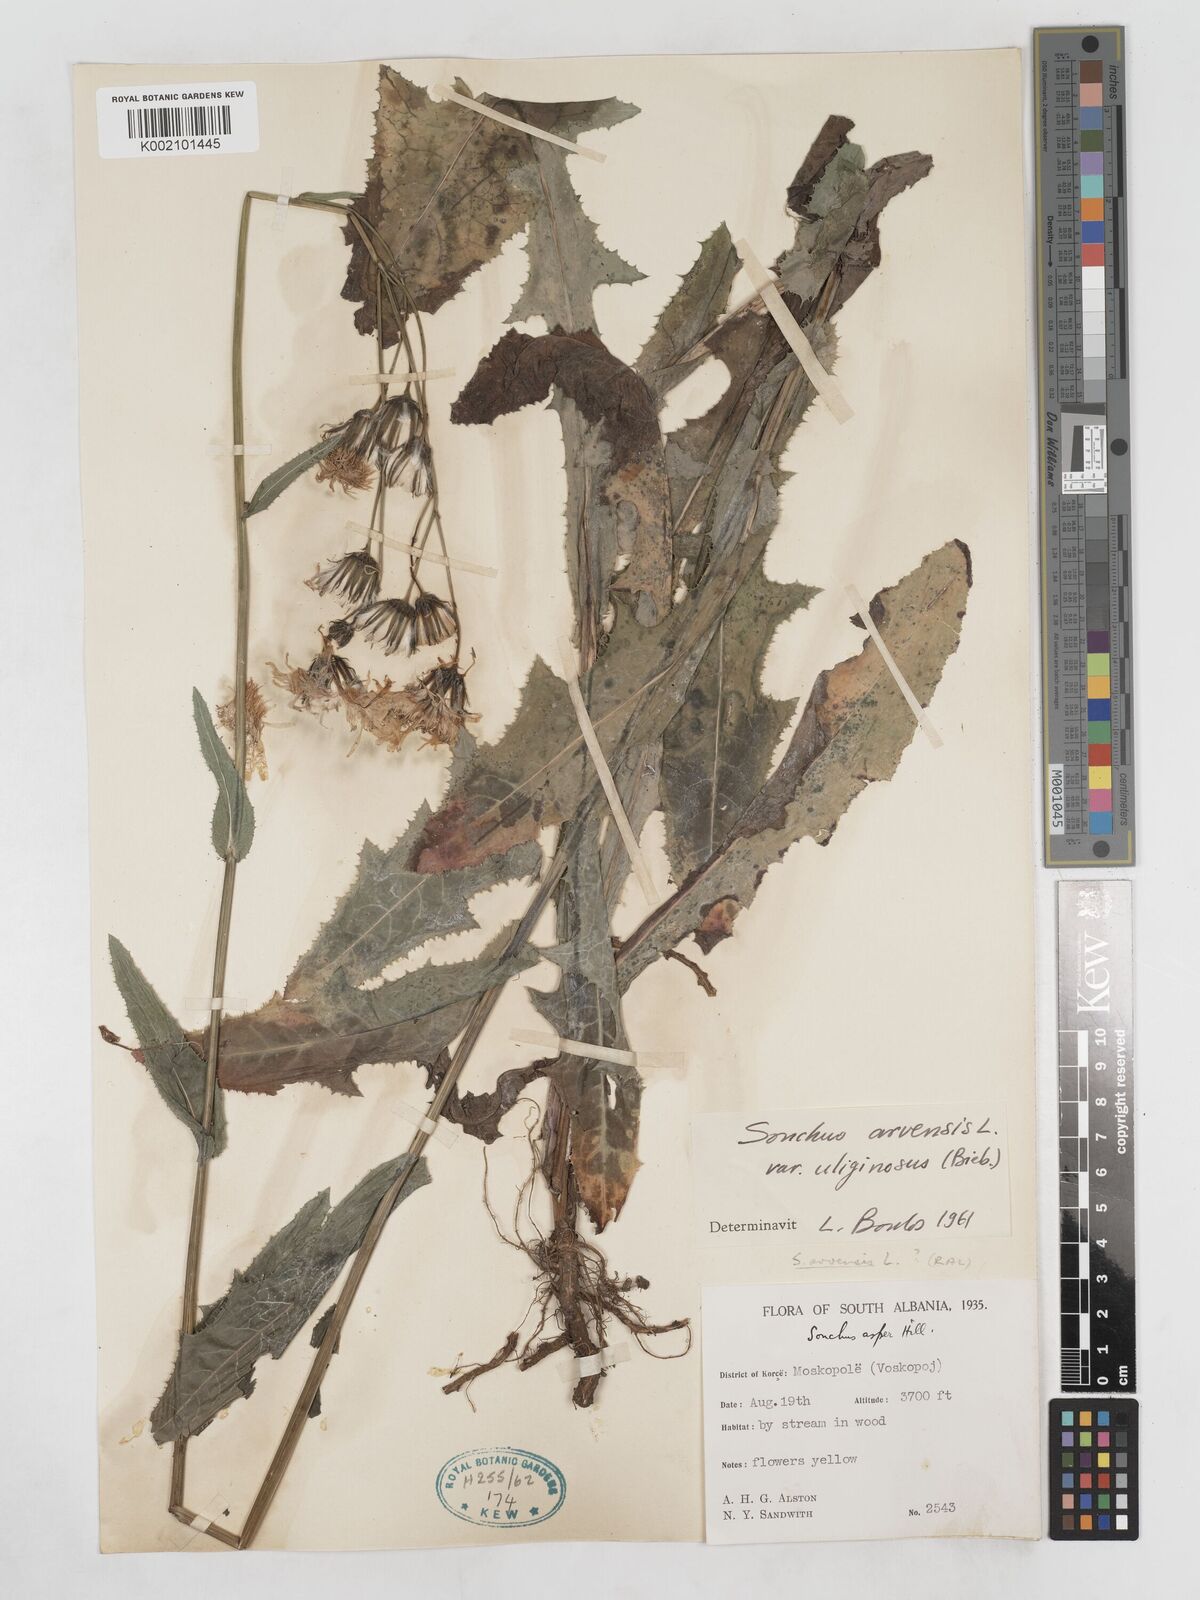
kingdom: Plantae
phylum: Tracheophyta
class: Magnoliopsida
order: Asterales
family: Asteraceae
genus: Sonchus
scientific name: Sonchus arvensis
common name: Perennial sow-thistle
